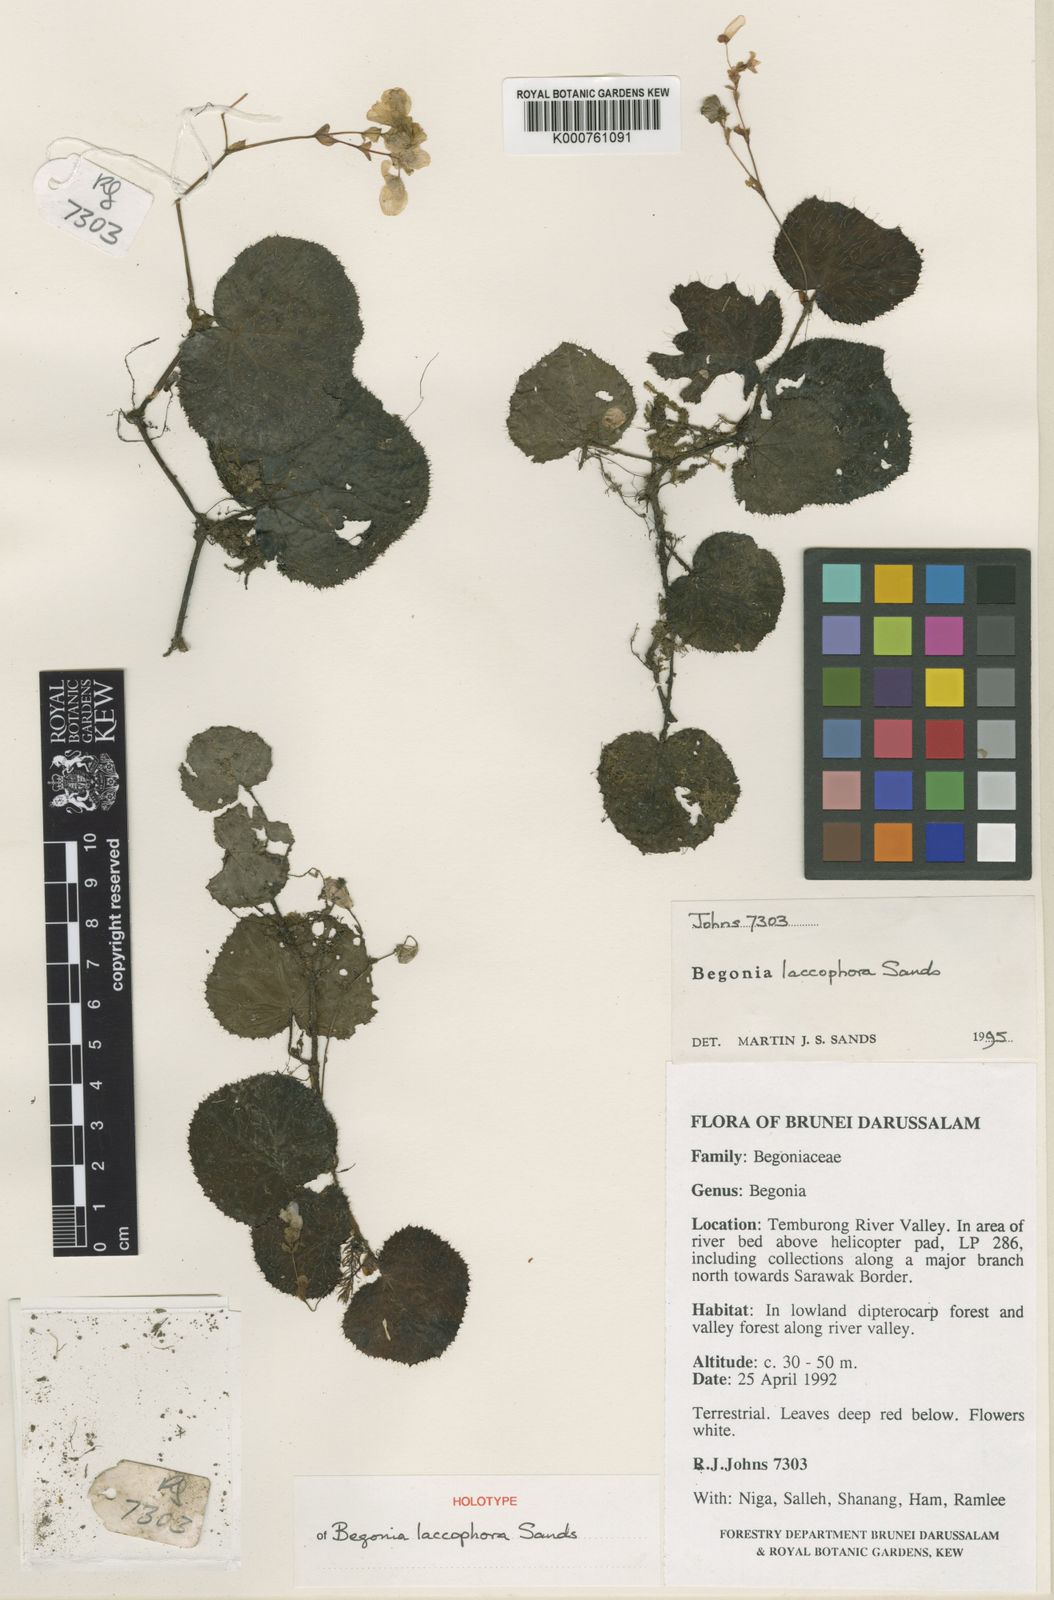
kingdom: Plantae
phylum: Tracheophyta
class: Magnoliopsida
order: Cucurbitales
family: Begoniaceae
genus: Begonia
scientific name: Begonia laccophora
